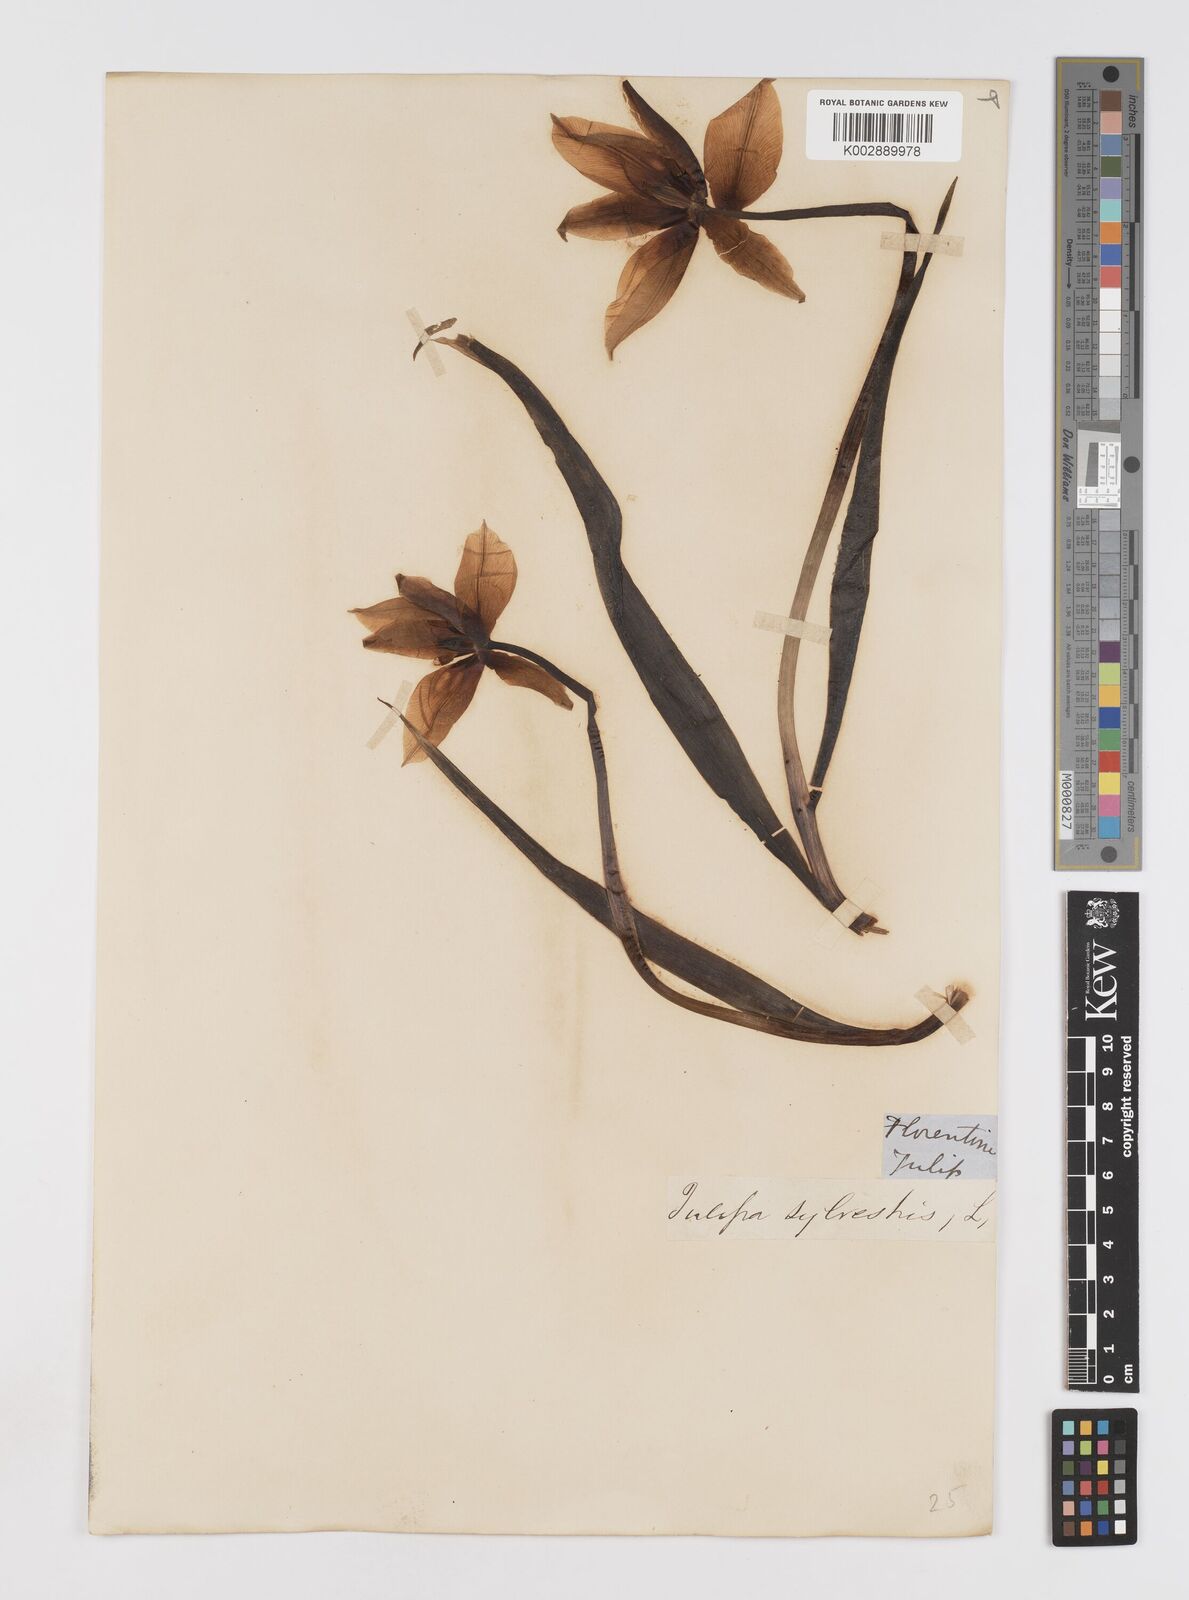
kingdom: Plantae
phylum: Tracheophyta
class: Liliopsida
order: Liliales
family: Liliaceae
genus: Tulipa
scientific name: Tulipa sylvestris
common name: Wild tulip
